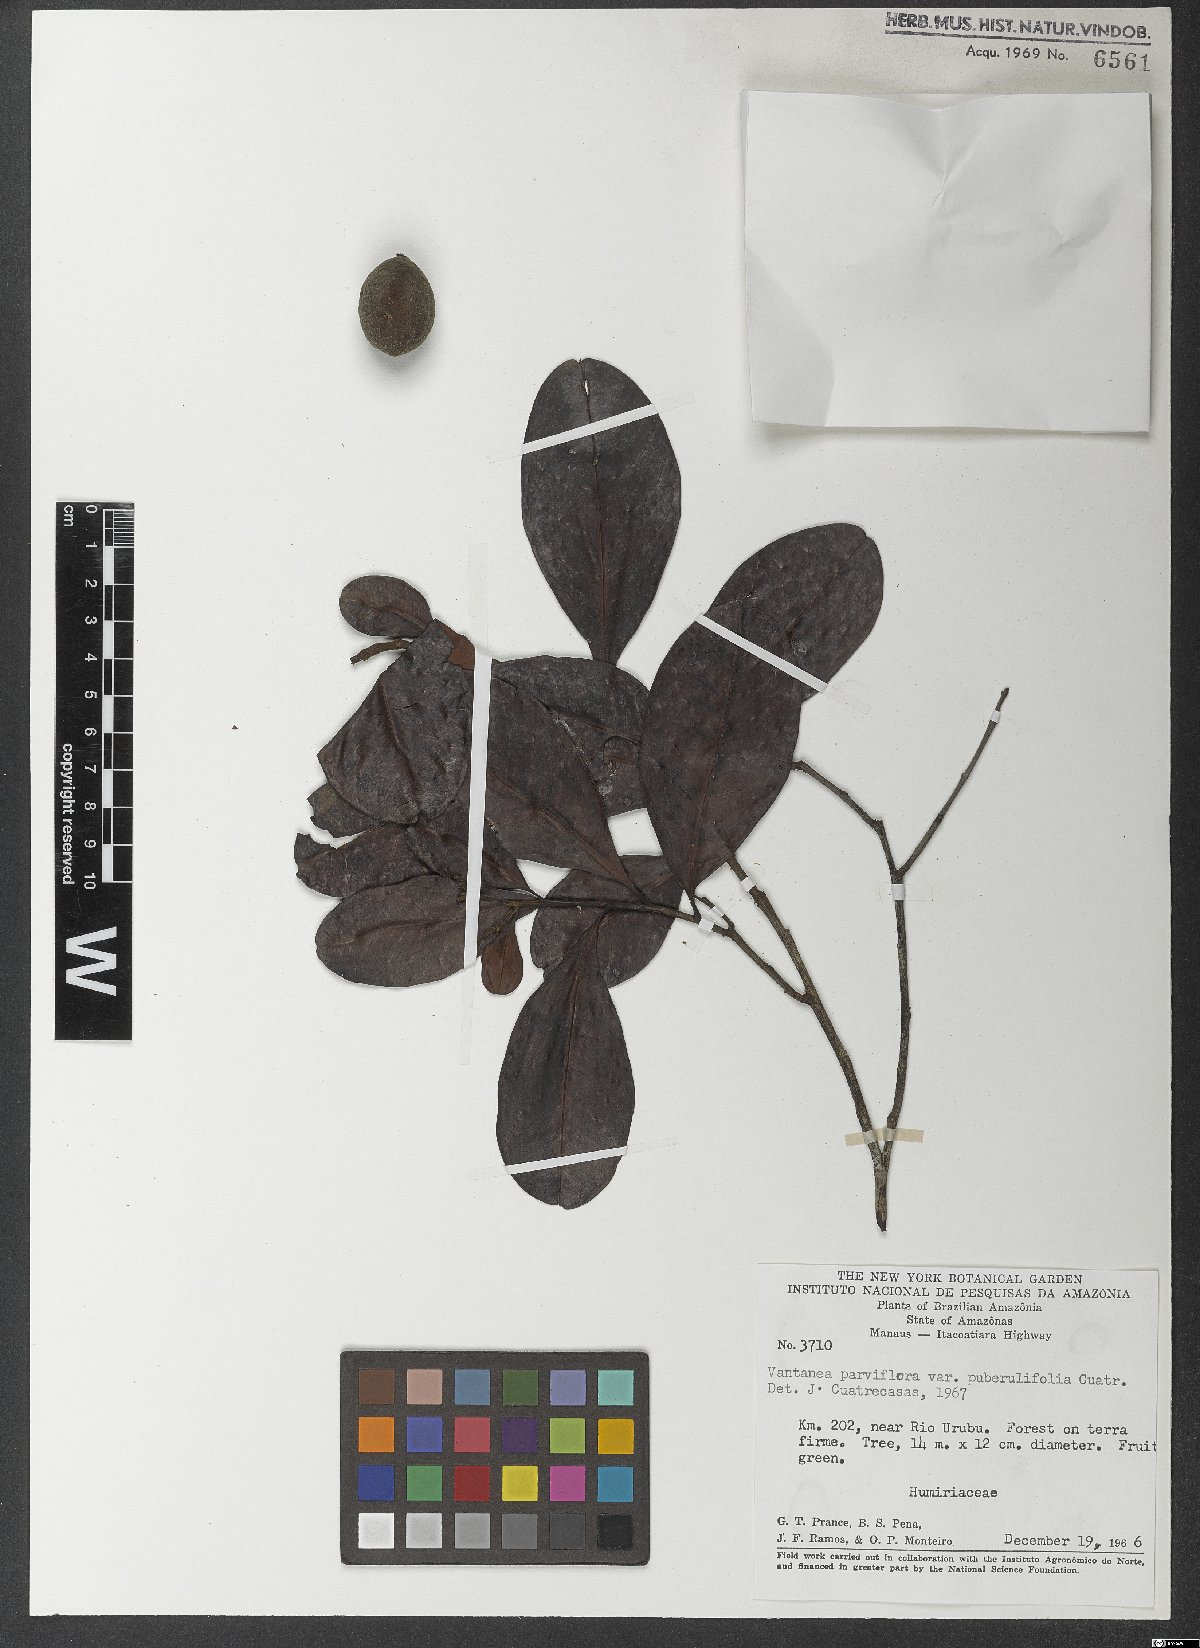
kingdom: Plantae
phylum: Tracheophyta
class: Magnoliopsida
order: Malpighiales
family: Humiriaceae
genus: Vantanea
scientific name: Vantanea parviflora
